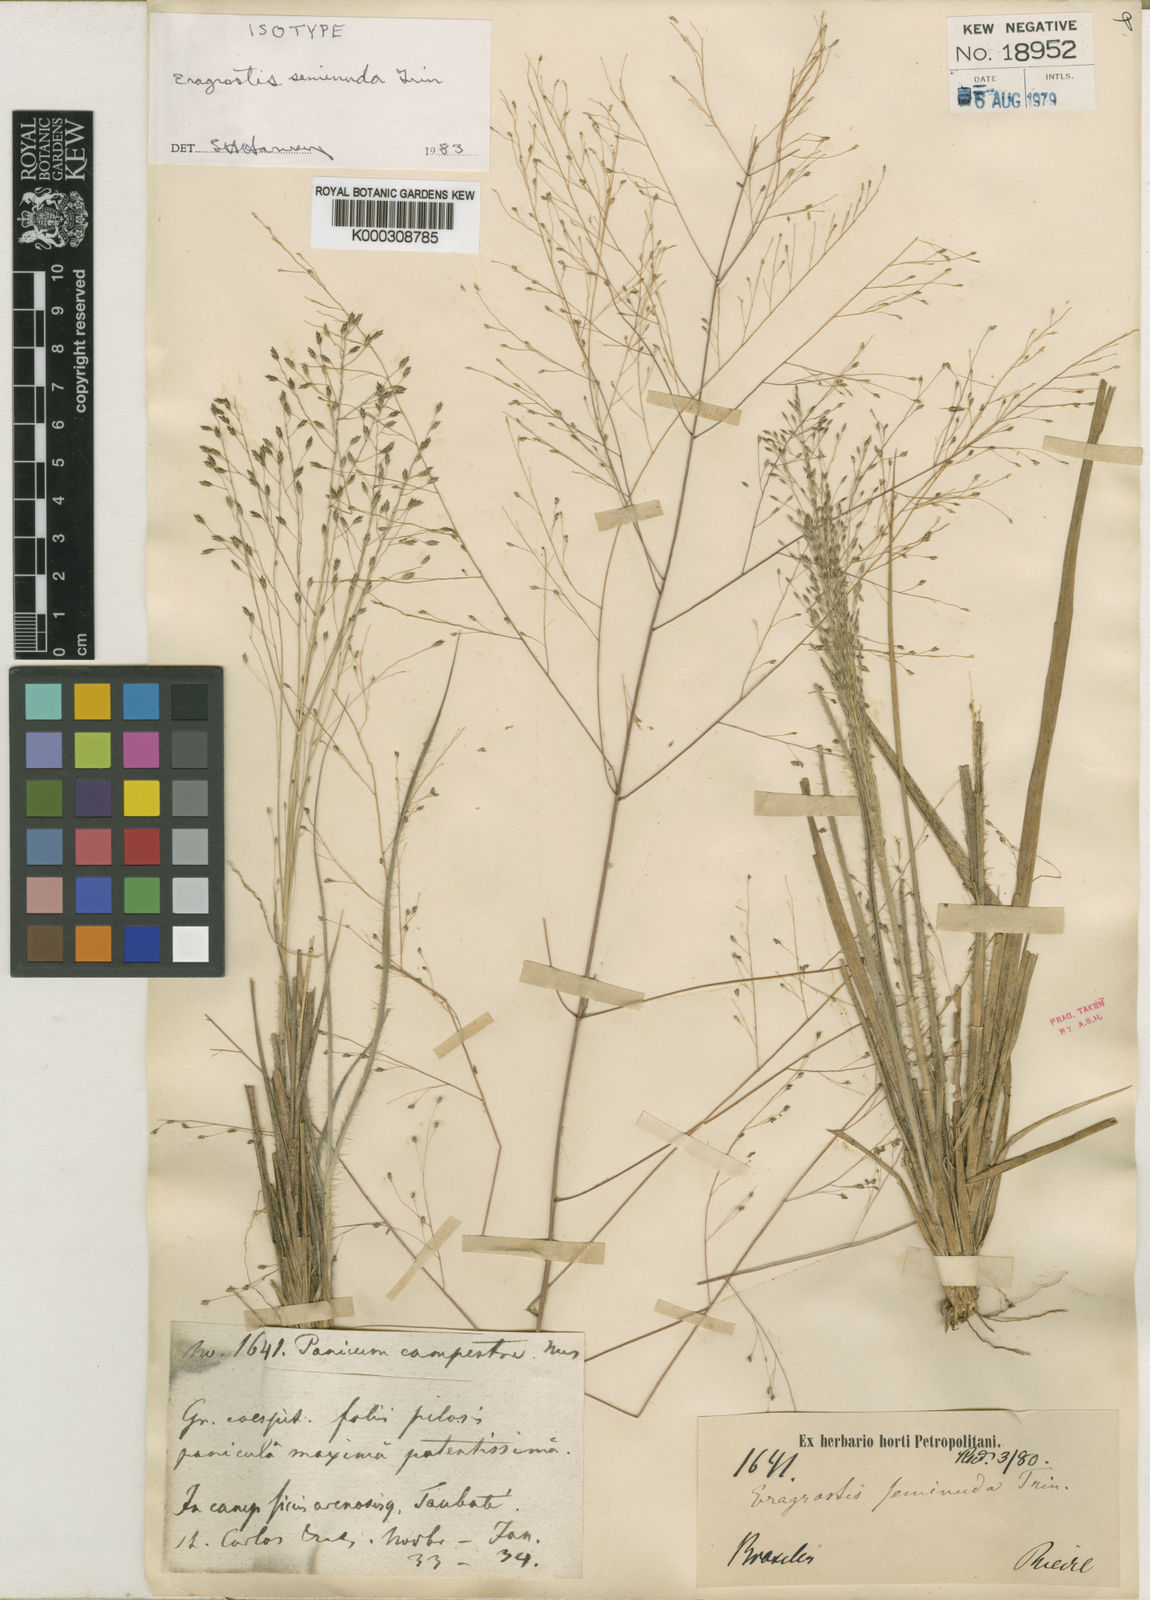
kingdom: Plantae
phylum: Tracheophyta
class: Liliopsida
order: Poales
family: Poaceae
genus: Eragrostis
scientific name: Eragrostis seminuda
